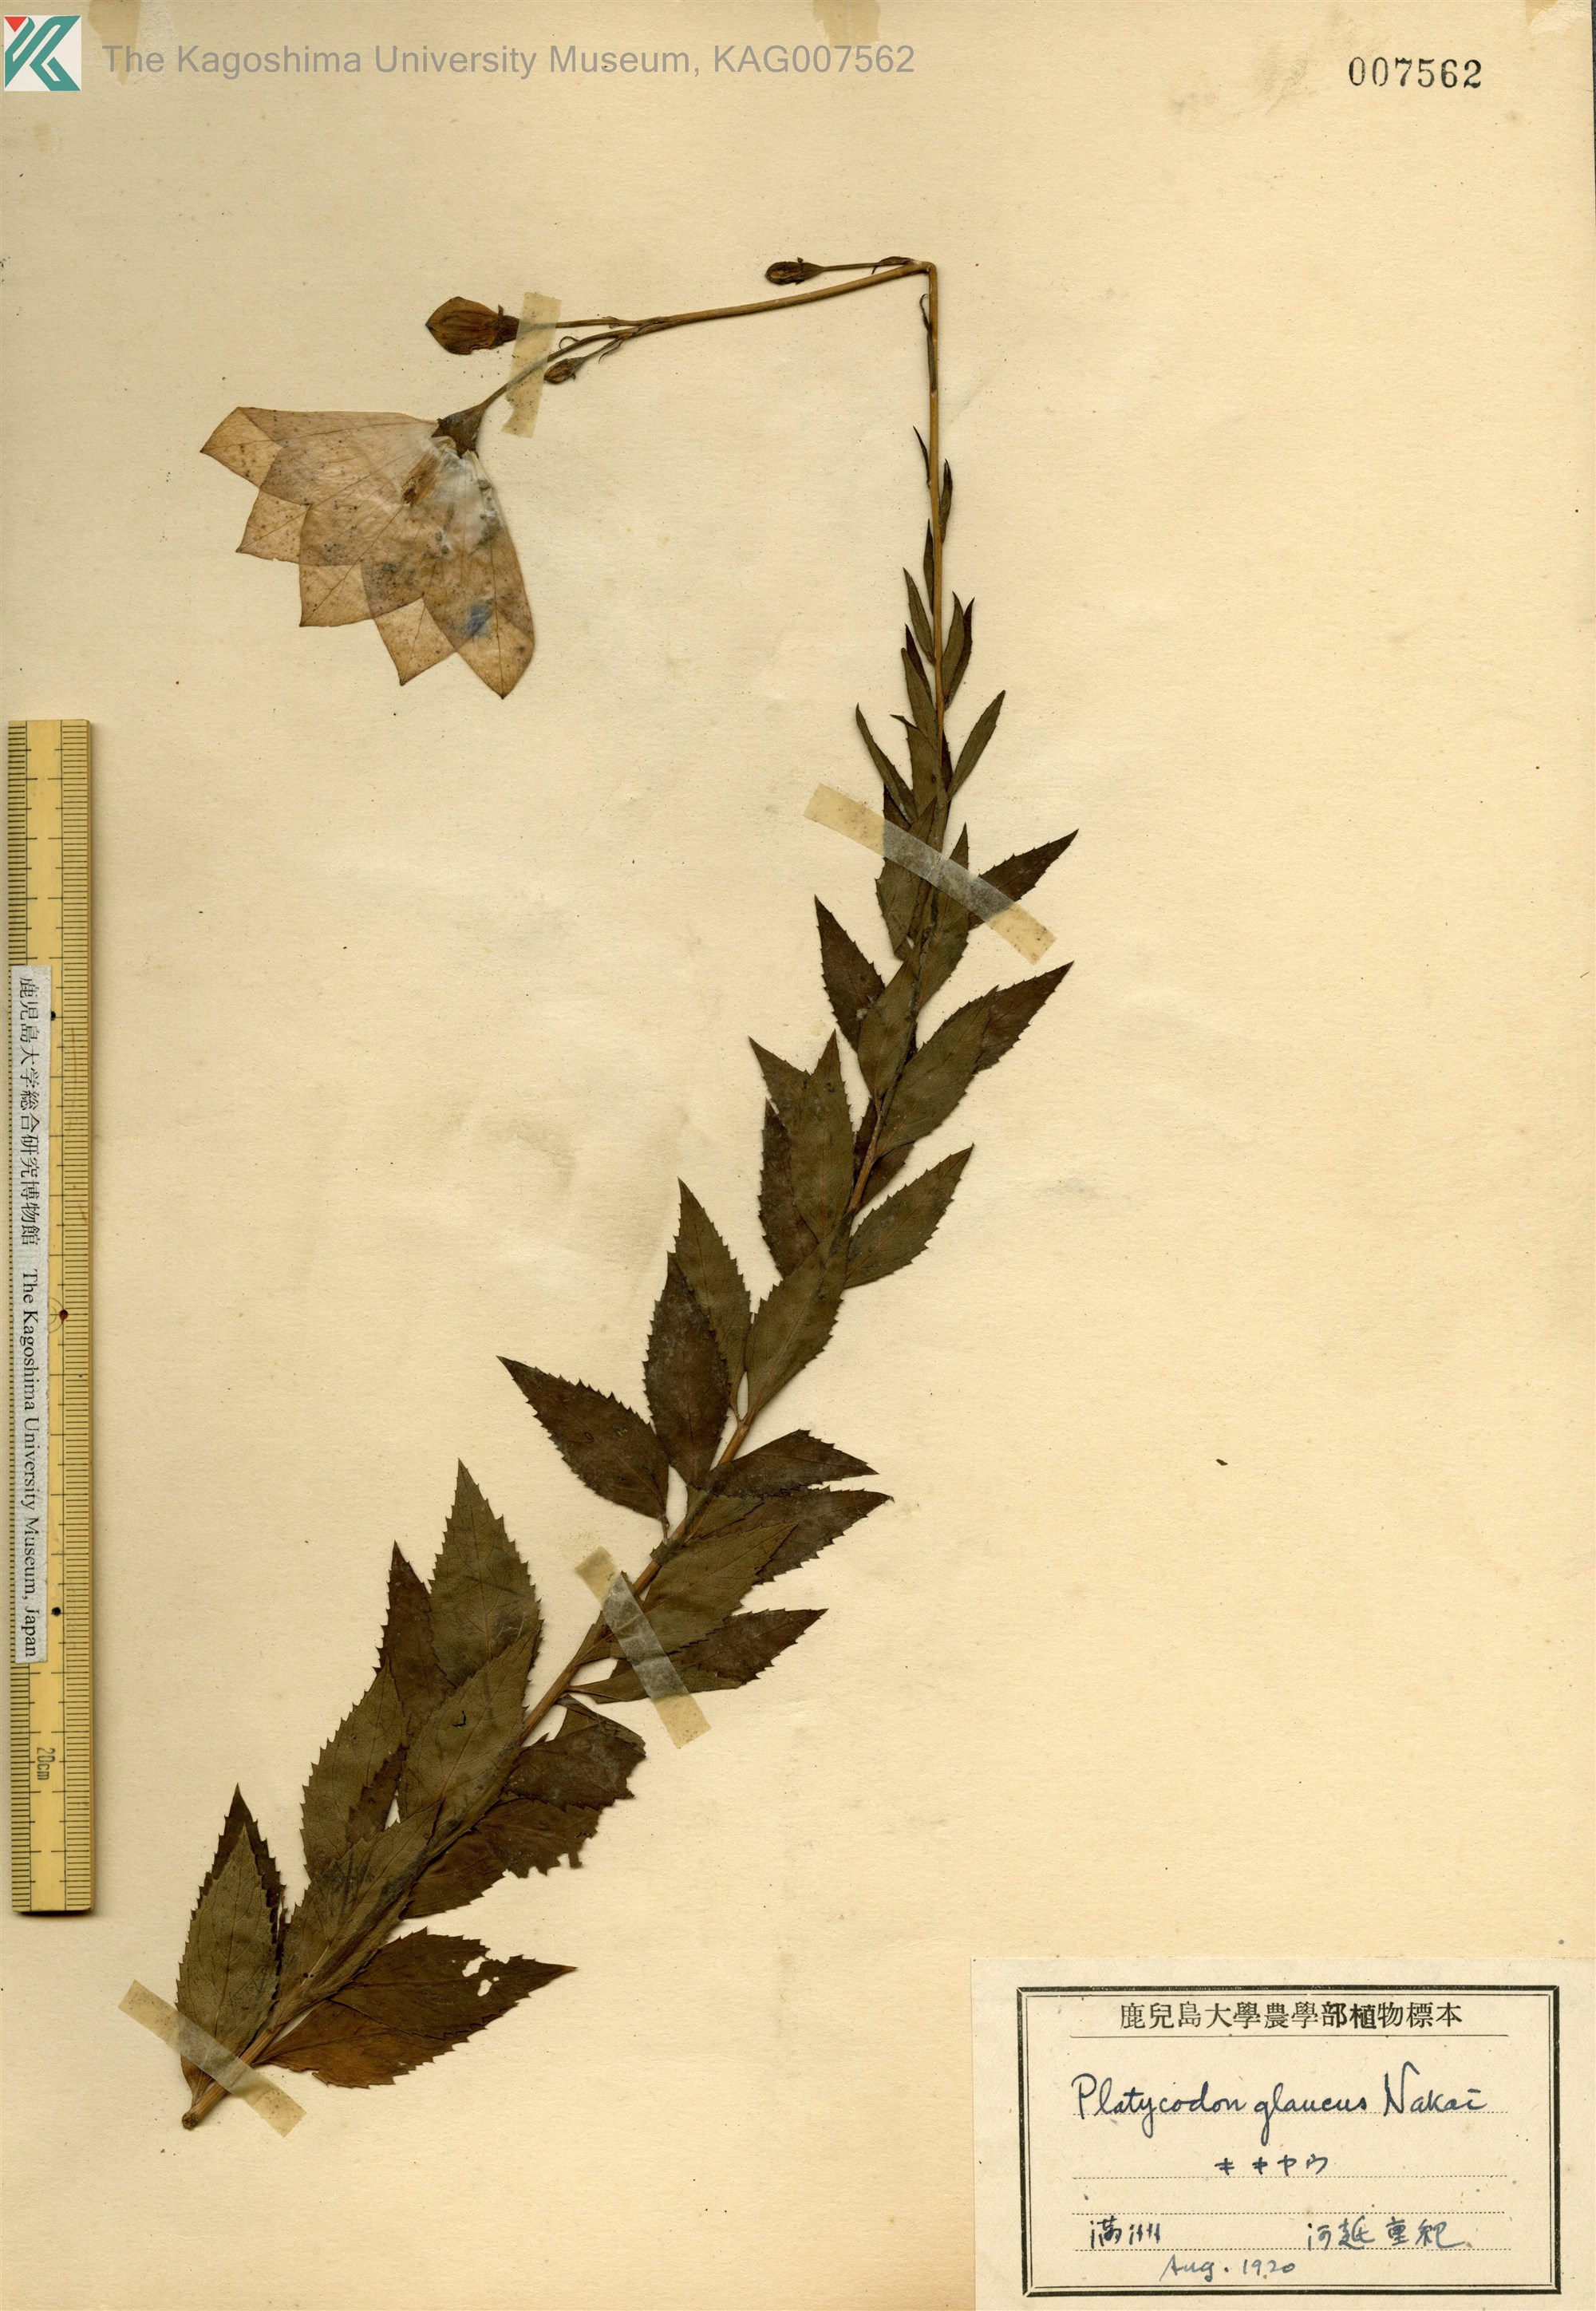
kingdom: Plantae
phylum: Tracheophyta
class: Magnoliopsida
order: Asterales
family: Campanulaceae
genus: Platycodon
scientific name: Platycodon grandiflorus
